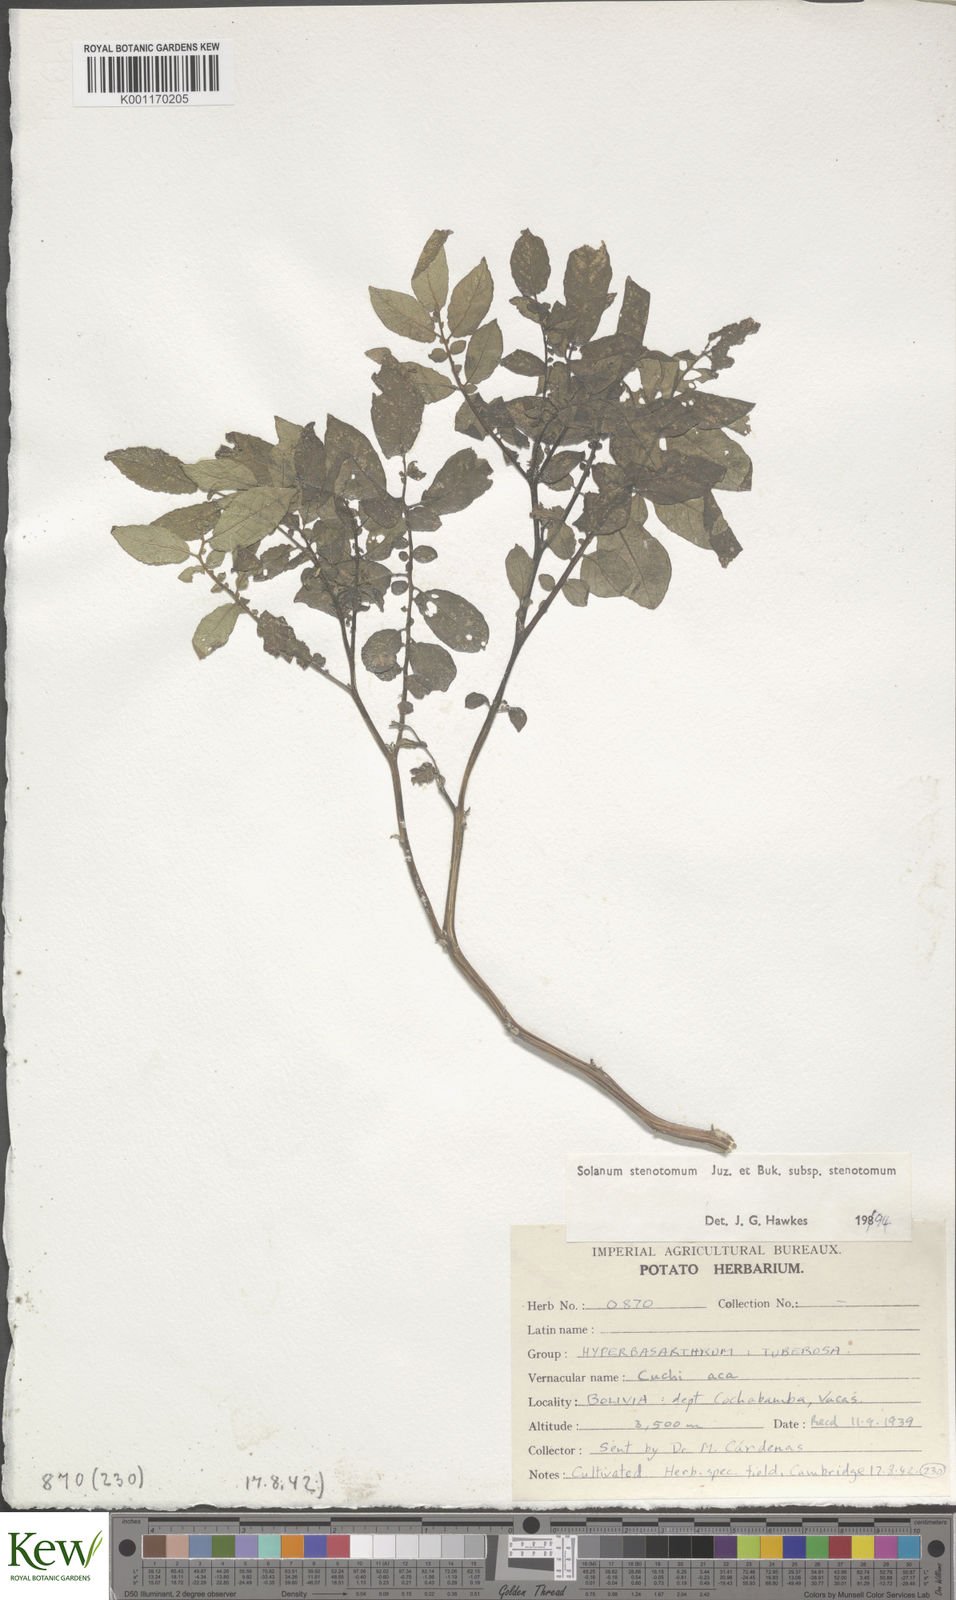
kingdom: Plantae
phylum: Tracheophyta
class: Magnoliopsida
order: Solanales
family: Solanaceae
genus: Solanum
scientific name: Solanum tuberosum
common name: Potato
